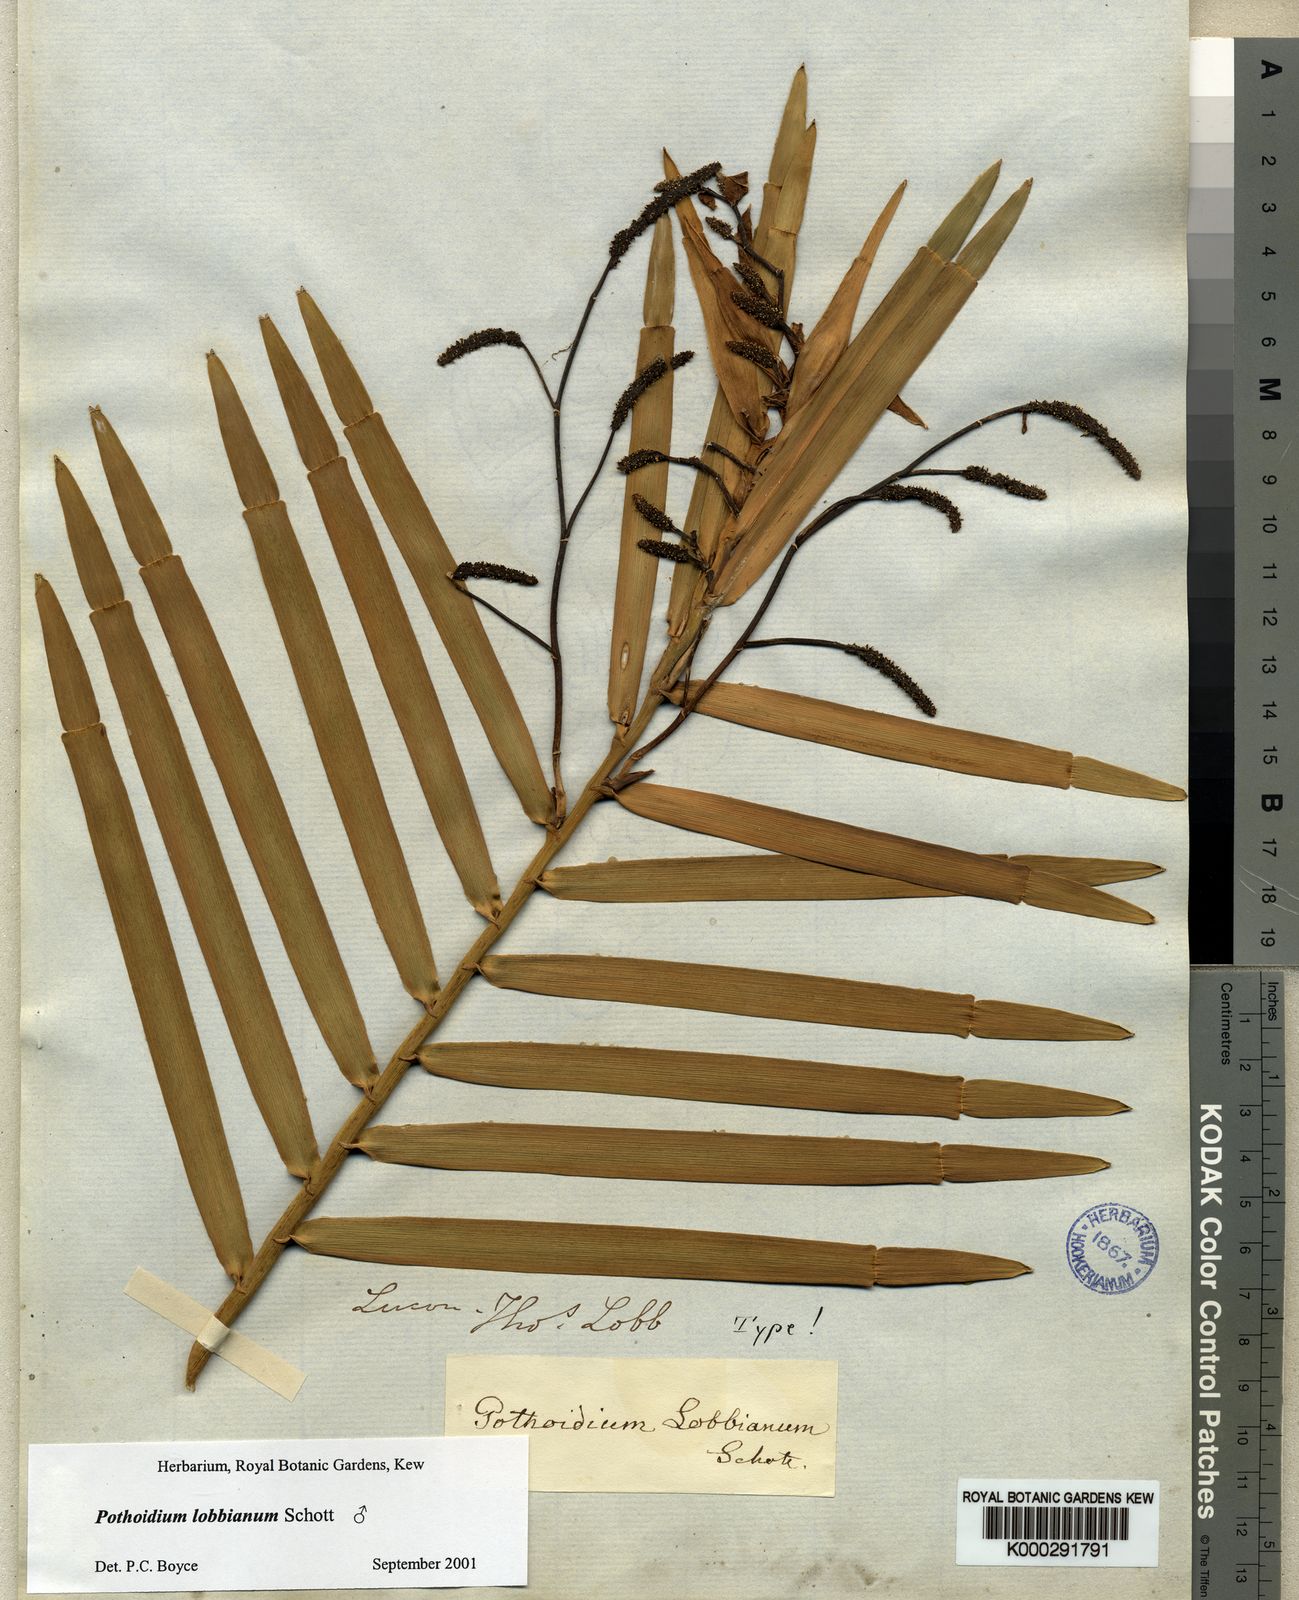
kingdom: Plantae
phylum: Tracheophyta
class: Liliopsida
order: Alismatales
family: Araceae
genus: Pothoidium
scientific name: Pothoidium lobbianum
